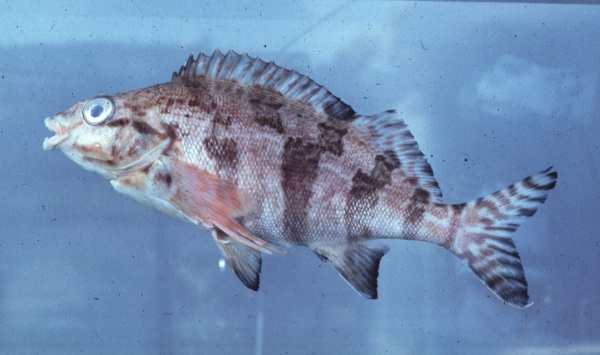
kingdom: Animalia
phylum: Chordata
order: Perciformes
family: Cheilodactylidae
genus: Cheilodactylus
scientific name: Cheilodactylus fasciatus
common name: Redfingers
